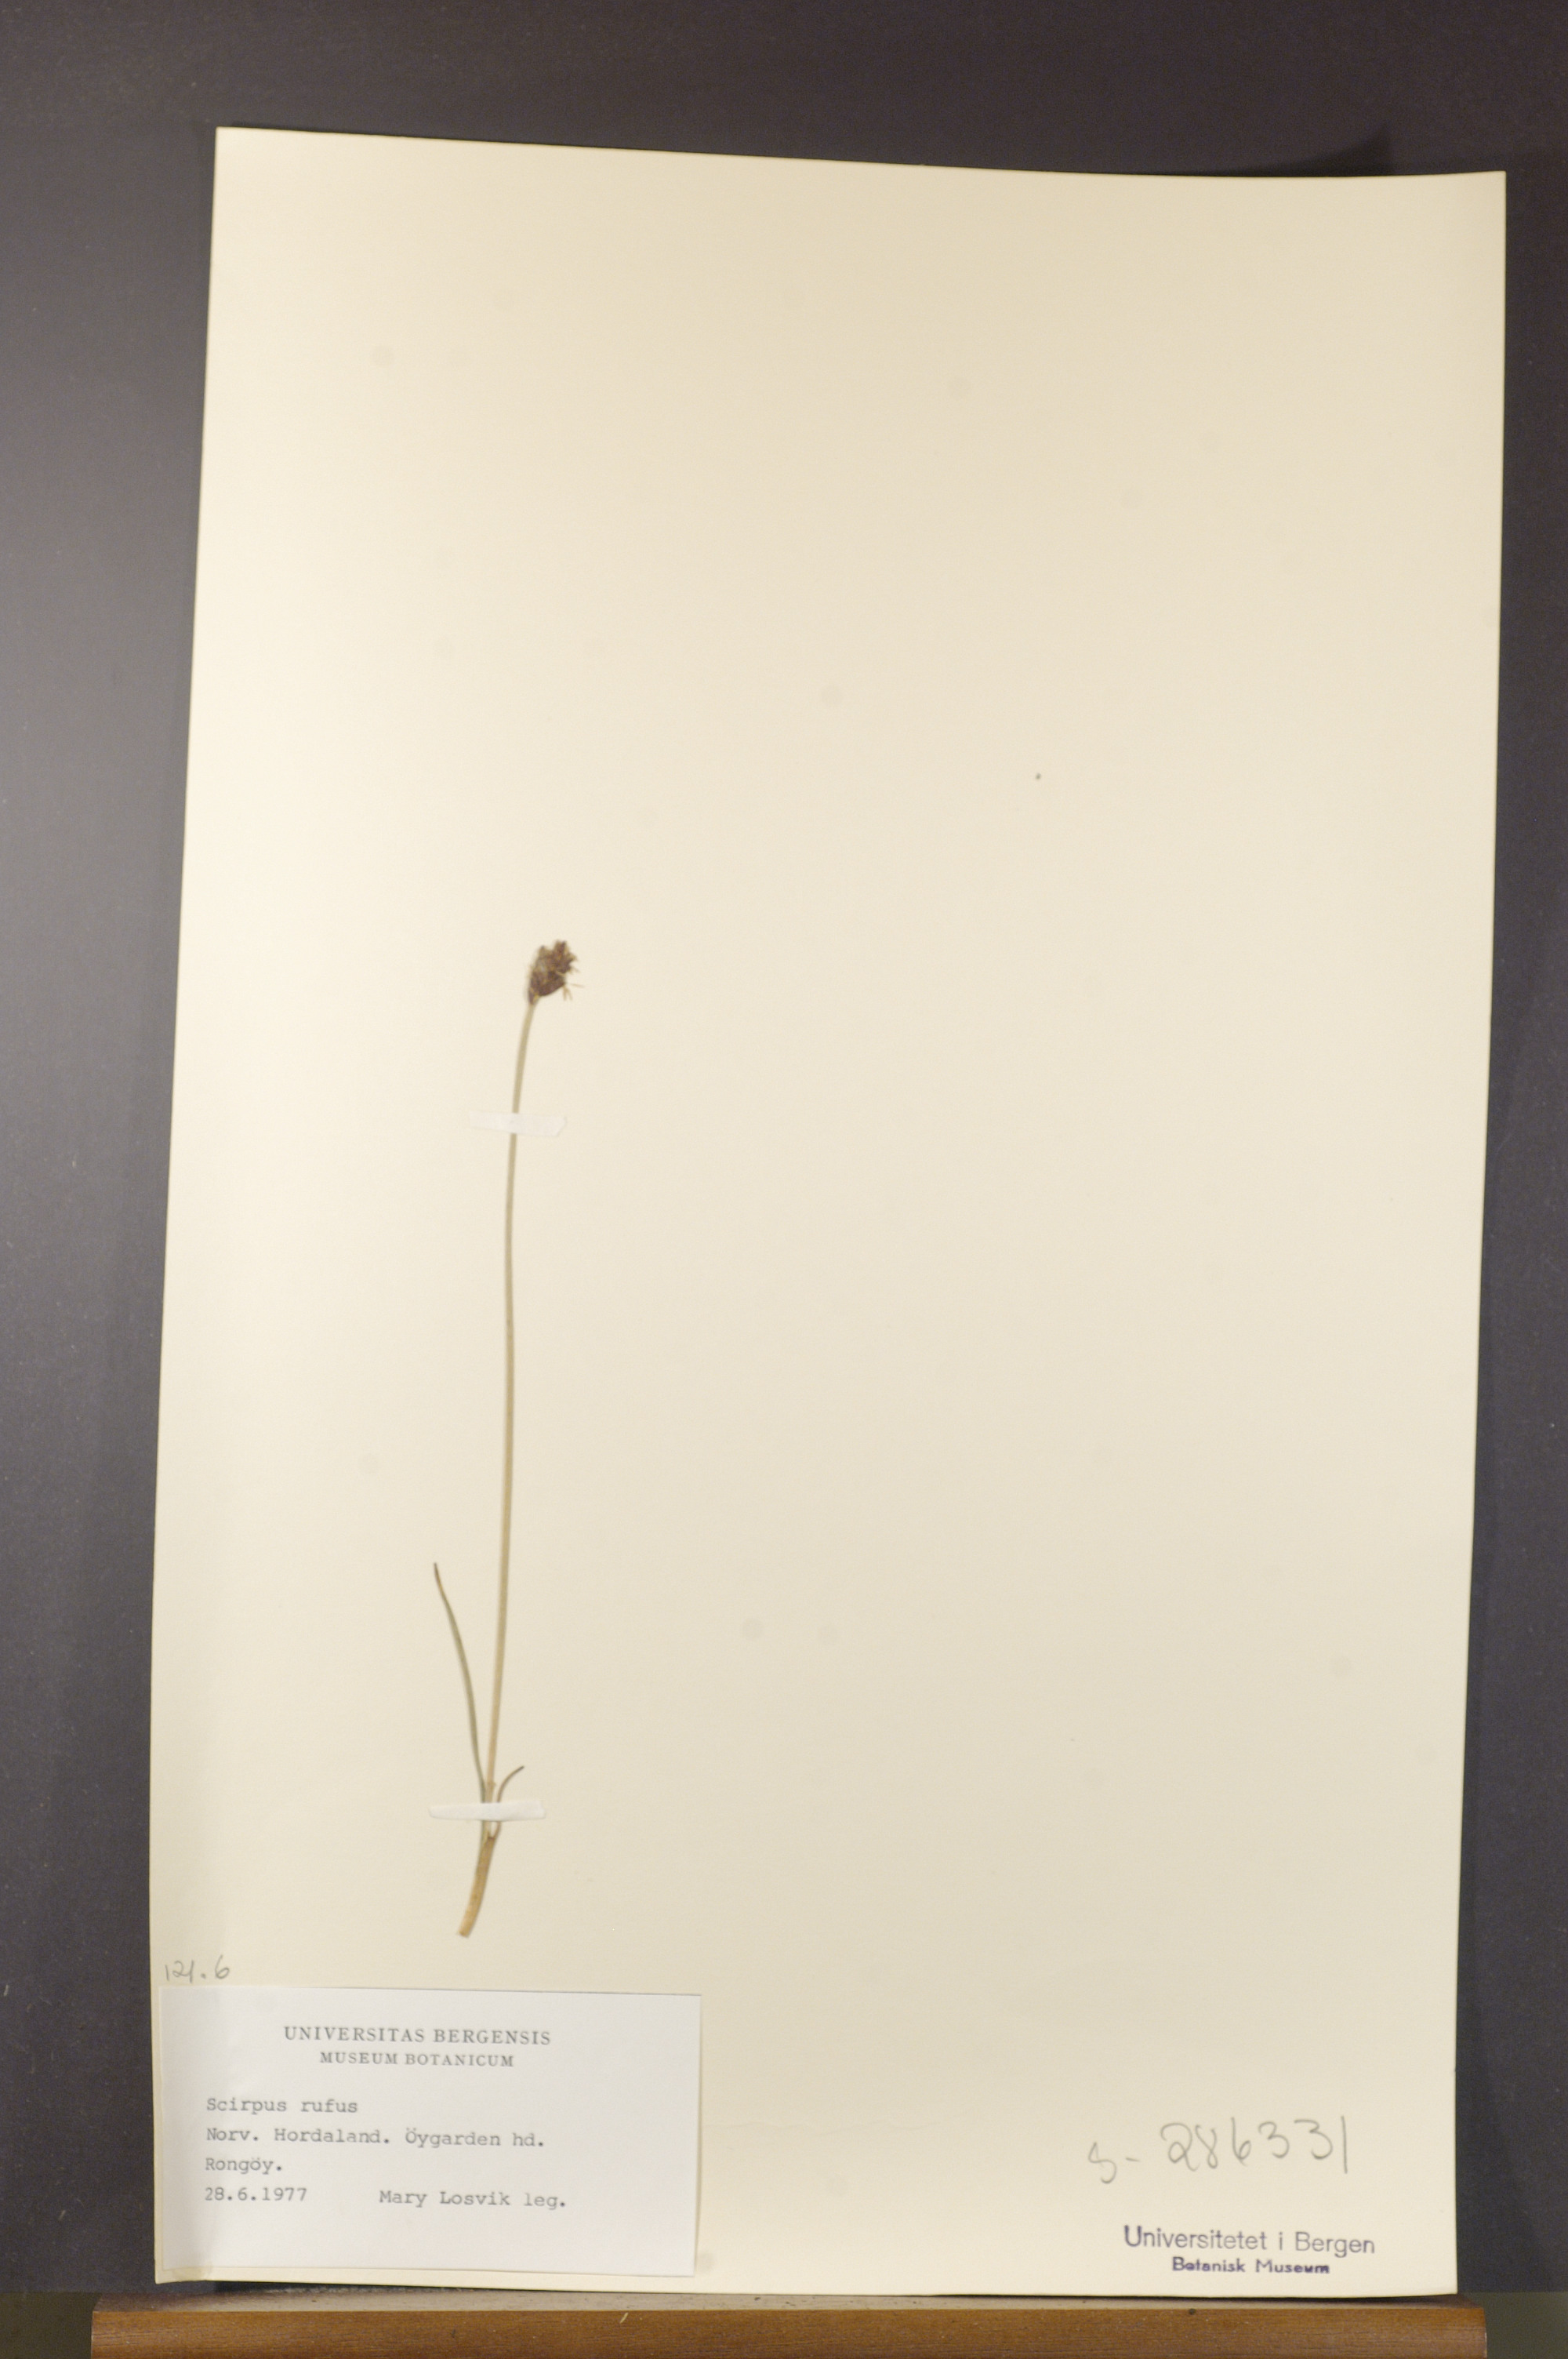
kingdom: Plantae
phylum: Tracheophyta
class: Liliopsida
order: Poales
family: Cyperaceae
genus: Blysmus
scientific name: Blysmus rufus
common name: Saltmarsh flat-sedge
